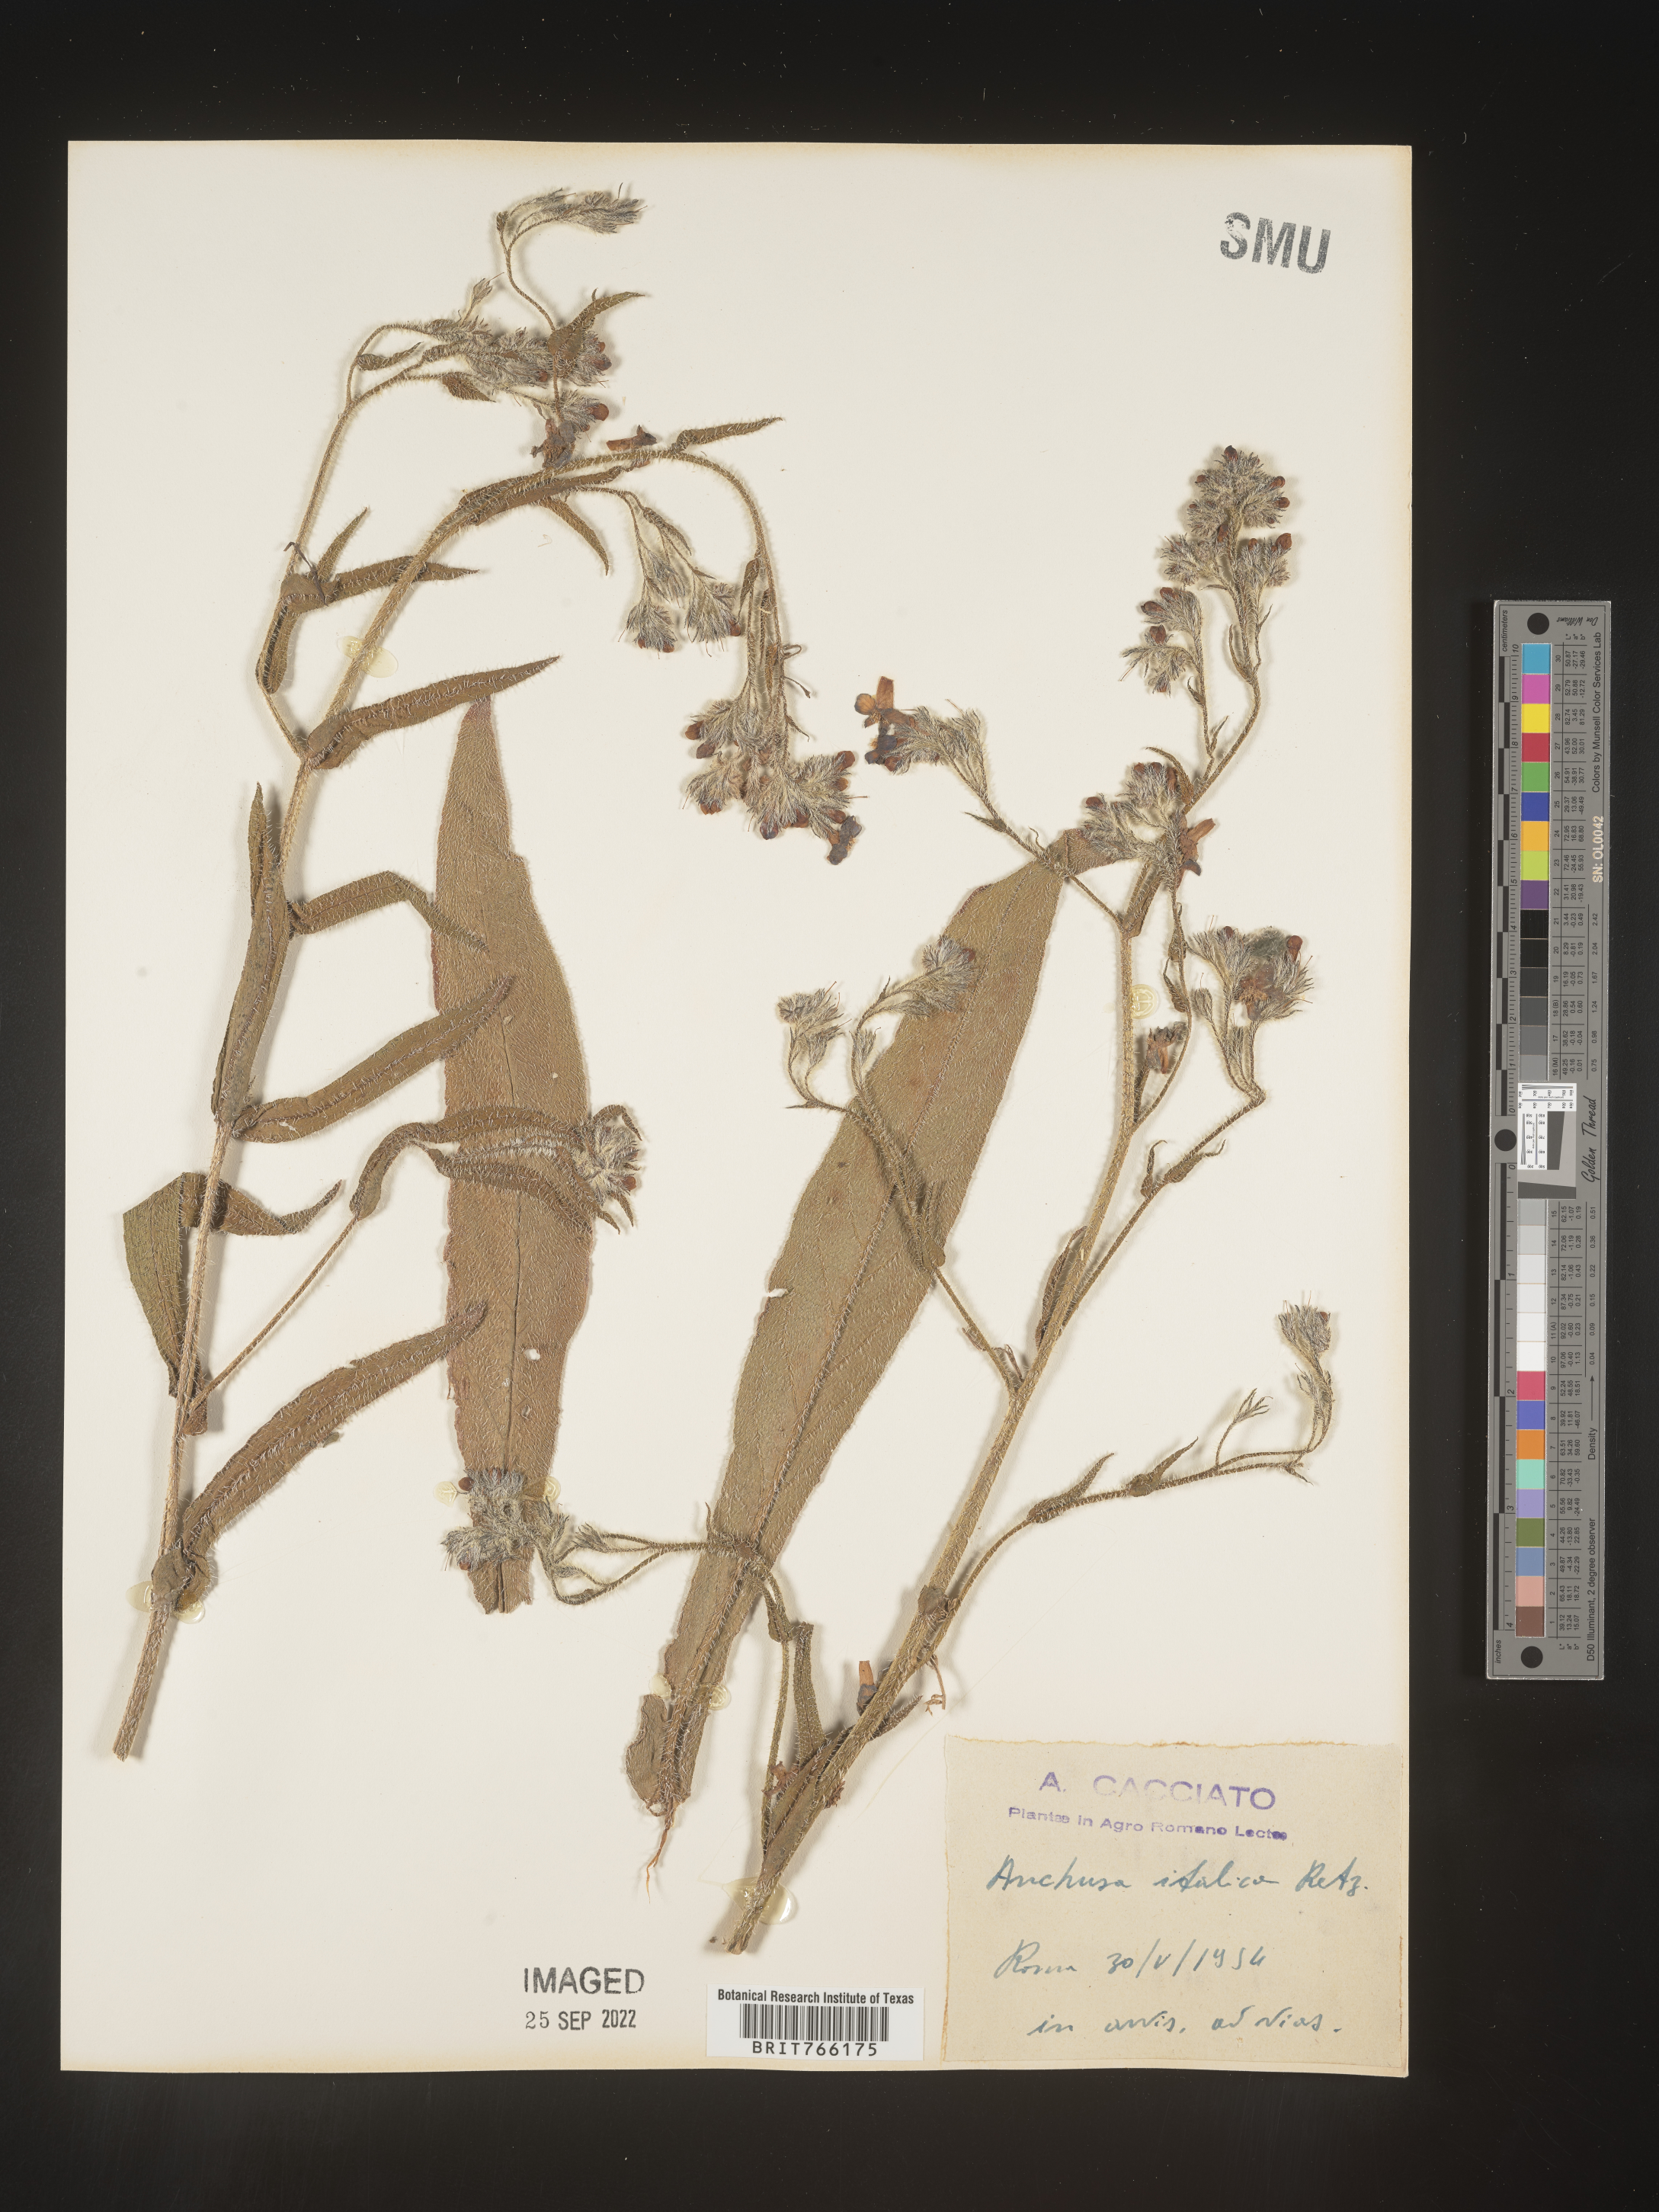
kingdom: Plantae
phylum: Tracheophyta
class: Magnoliopsida
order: Boraginales
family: Boraginaceae
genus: Anchusa
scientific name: Anchusa
